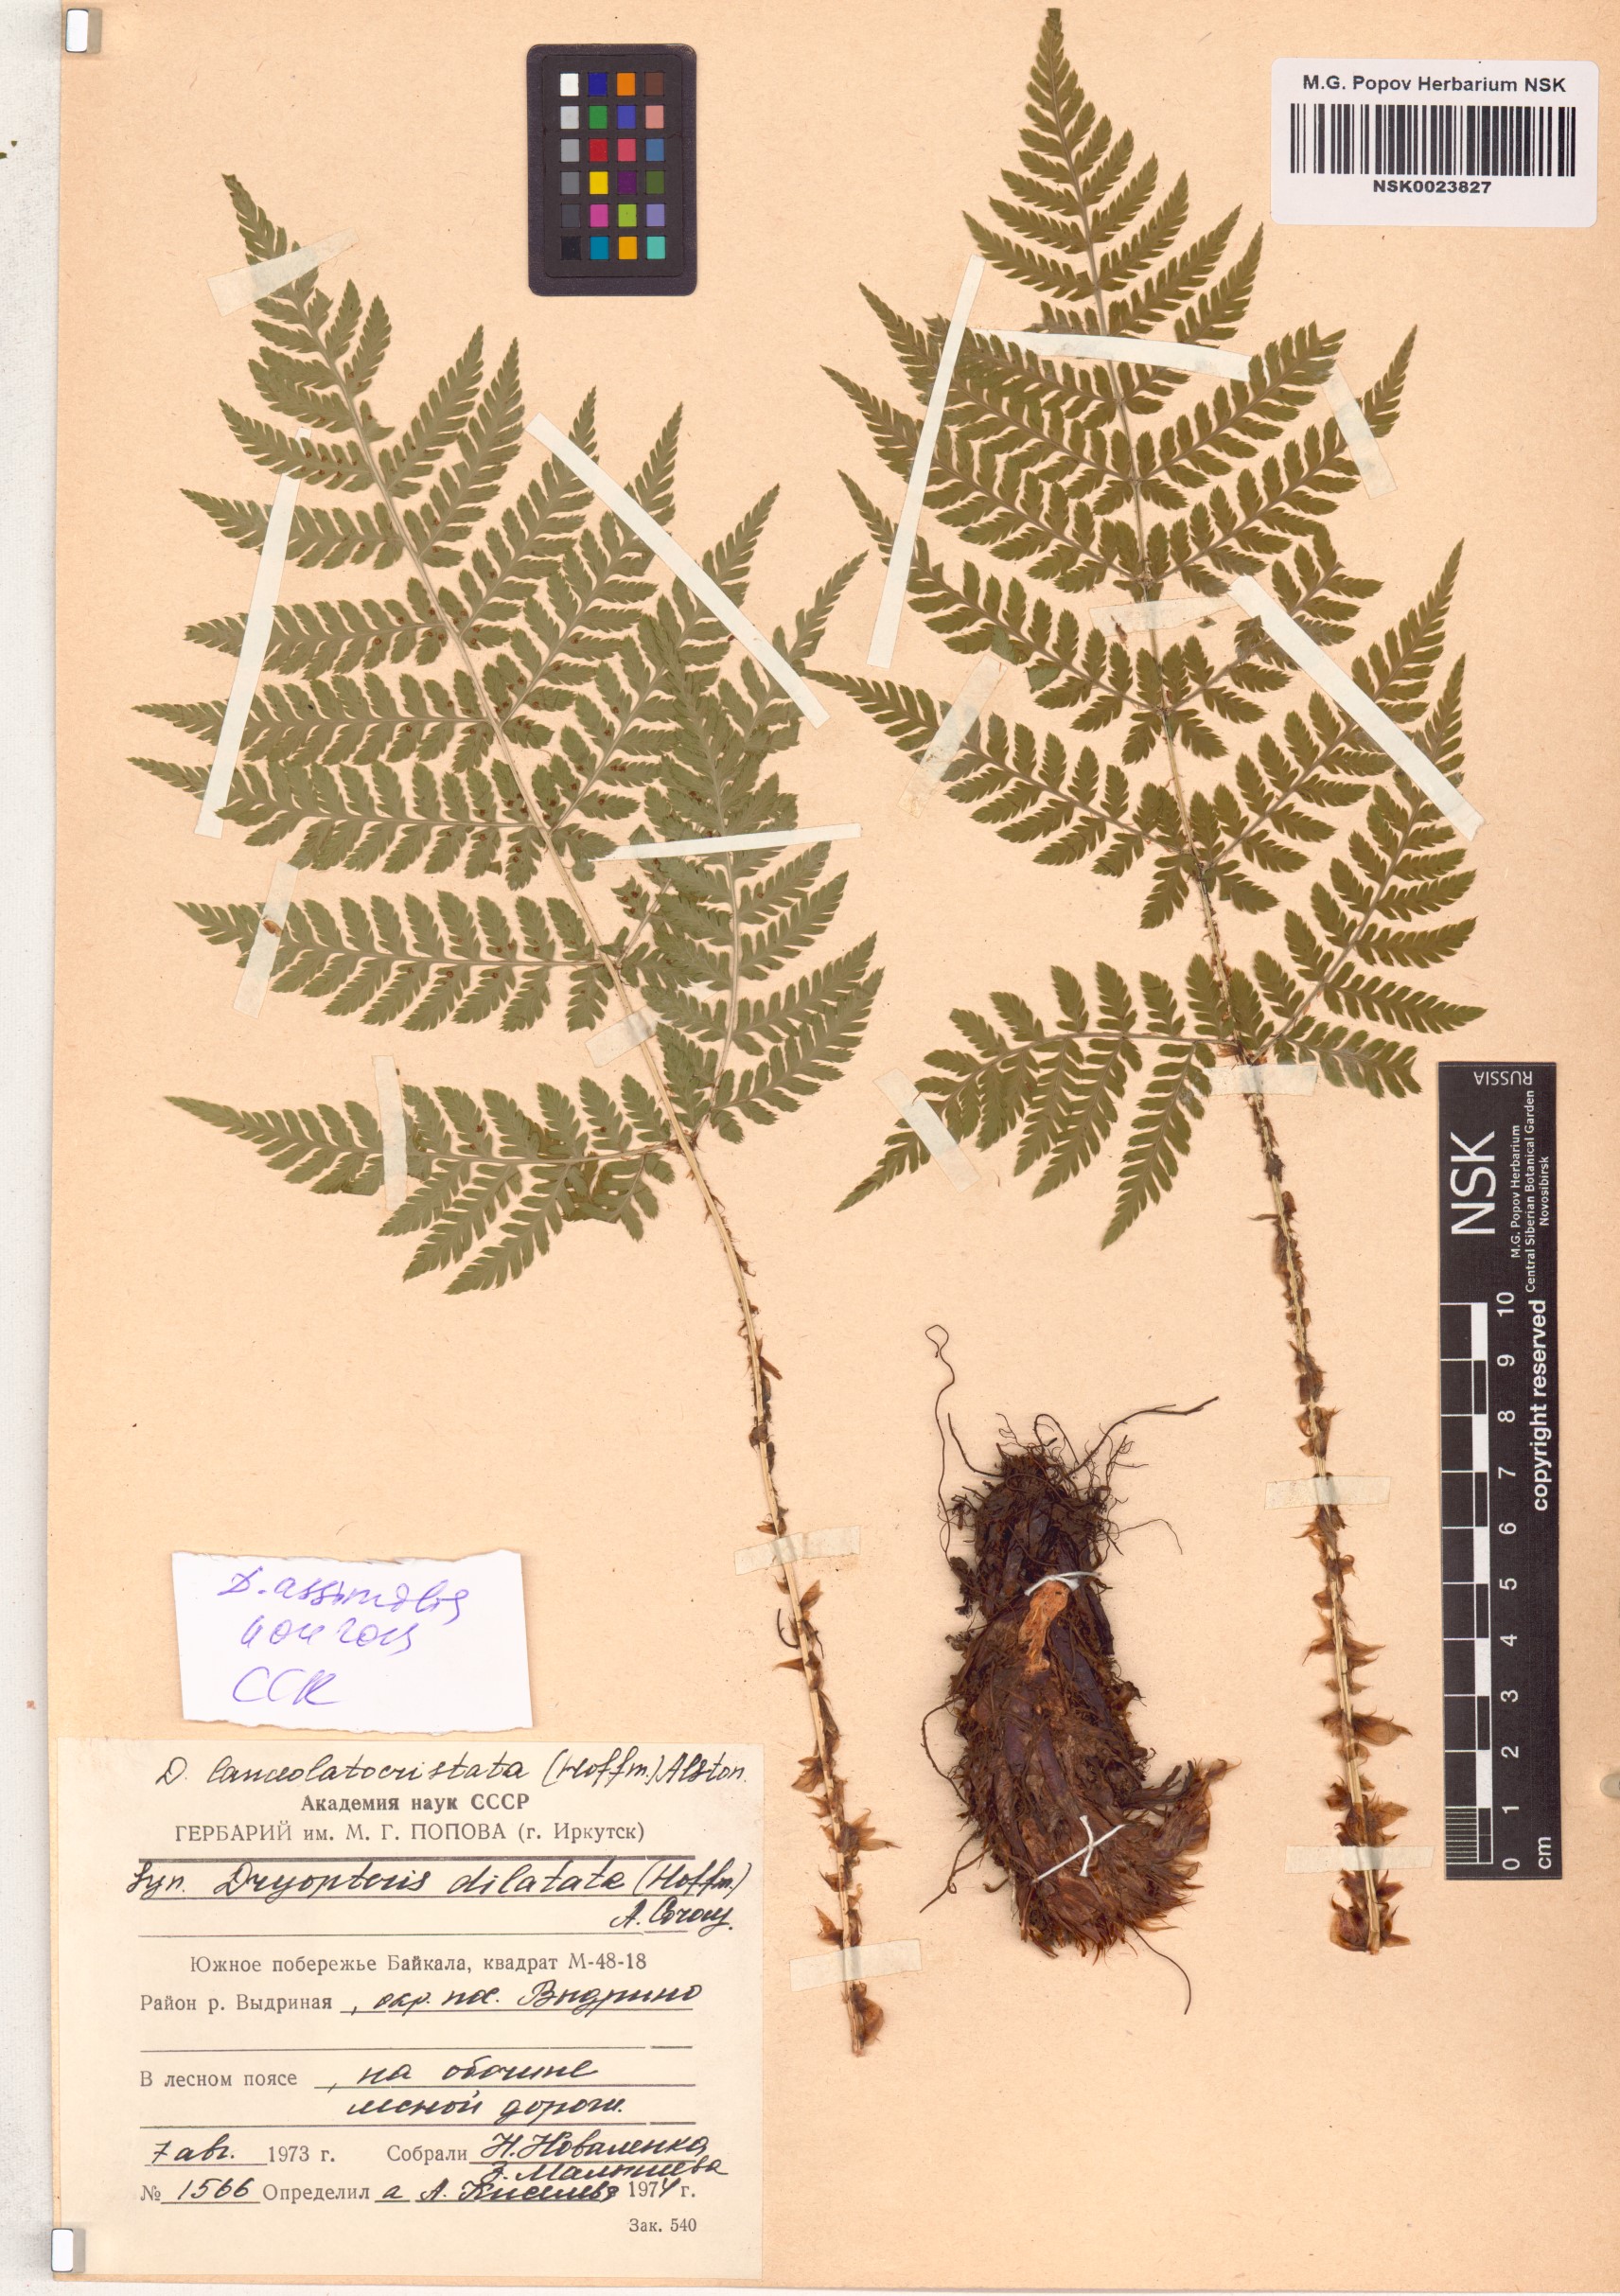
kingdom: Plantae
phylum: Tracheophyta
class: Polypodiopsida
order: Polypodiales
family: Dryopteridaceae
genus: Dryopteris
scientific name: Dryopteris expansa
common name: Northern buckler fern
